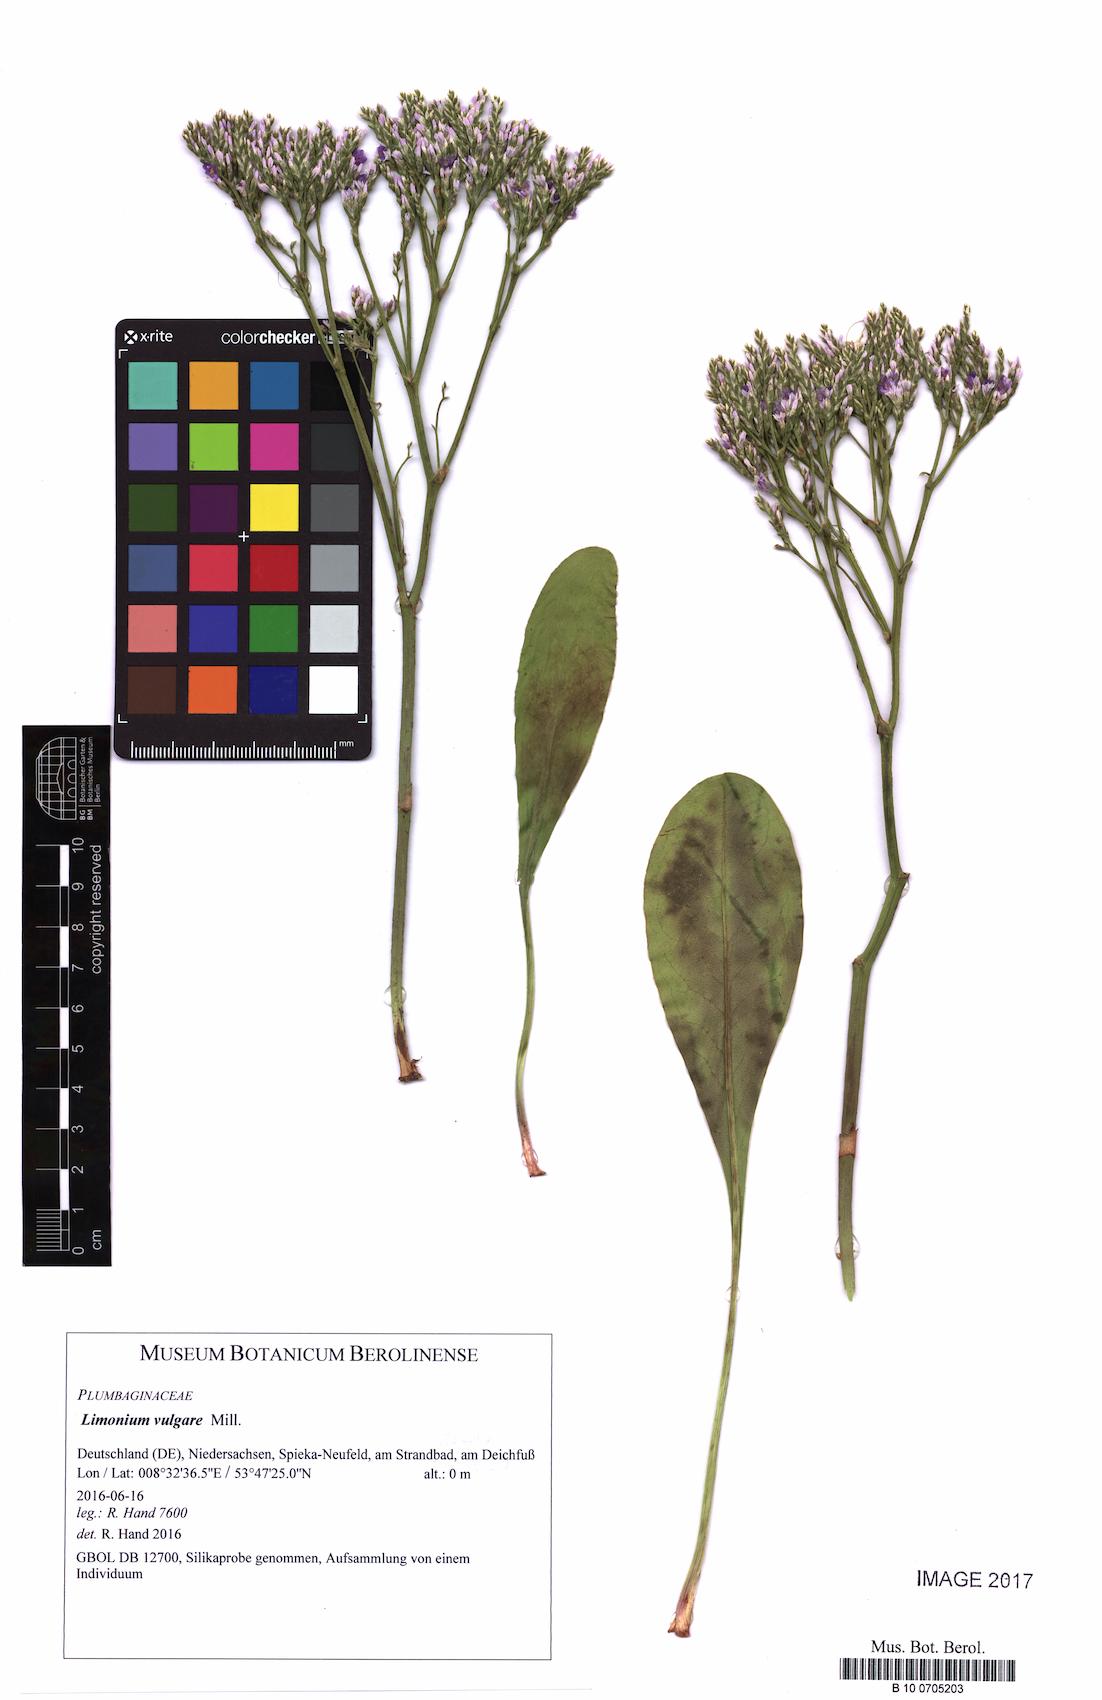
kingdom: Plantae
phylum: Tracheophyta
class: Magnoliopsida
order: Caryophyllales
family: Plumbaginaceae
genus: Limonium
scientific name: Limonium vulgare
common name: Common sea-lavender
